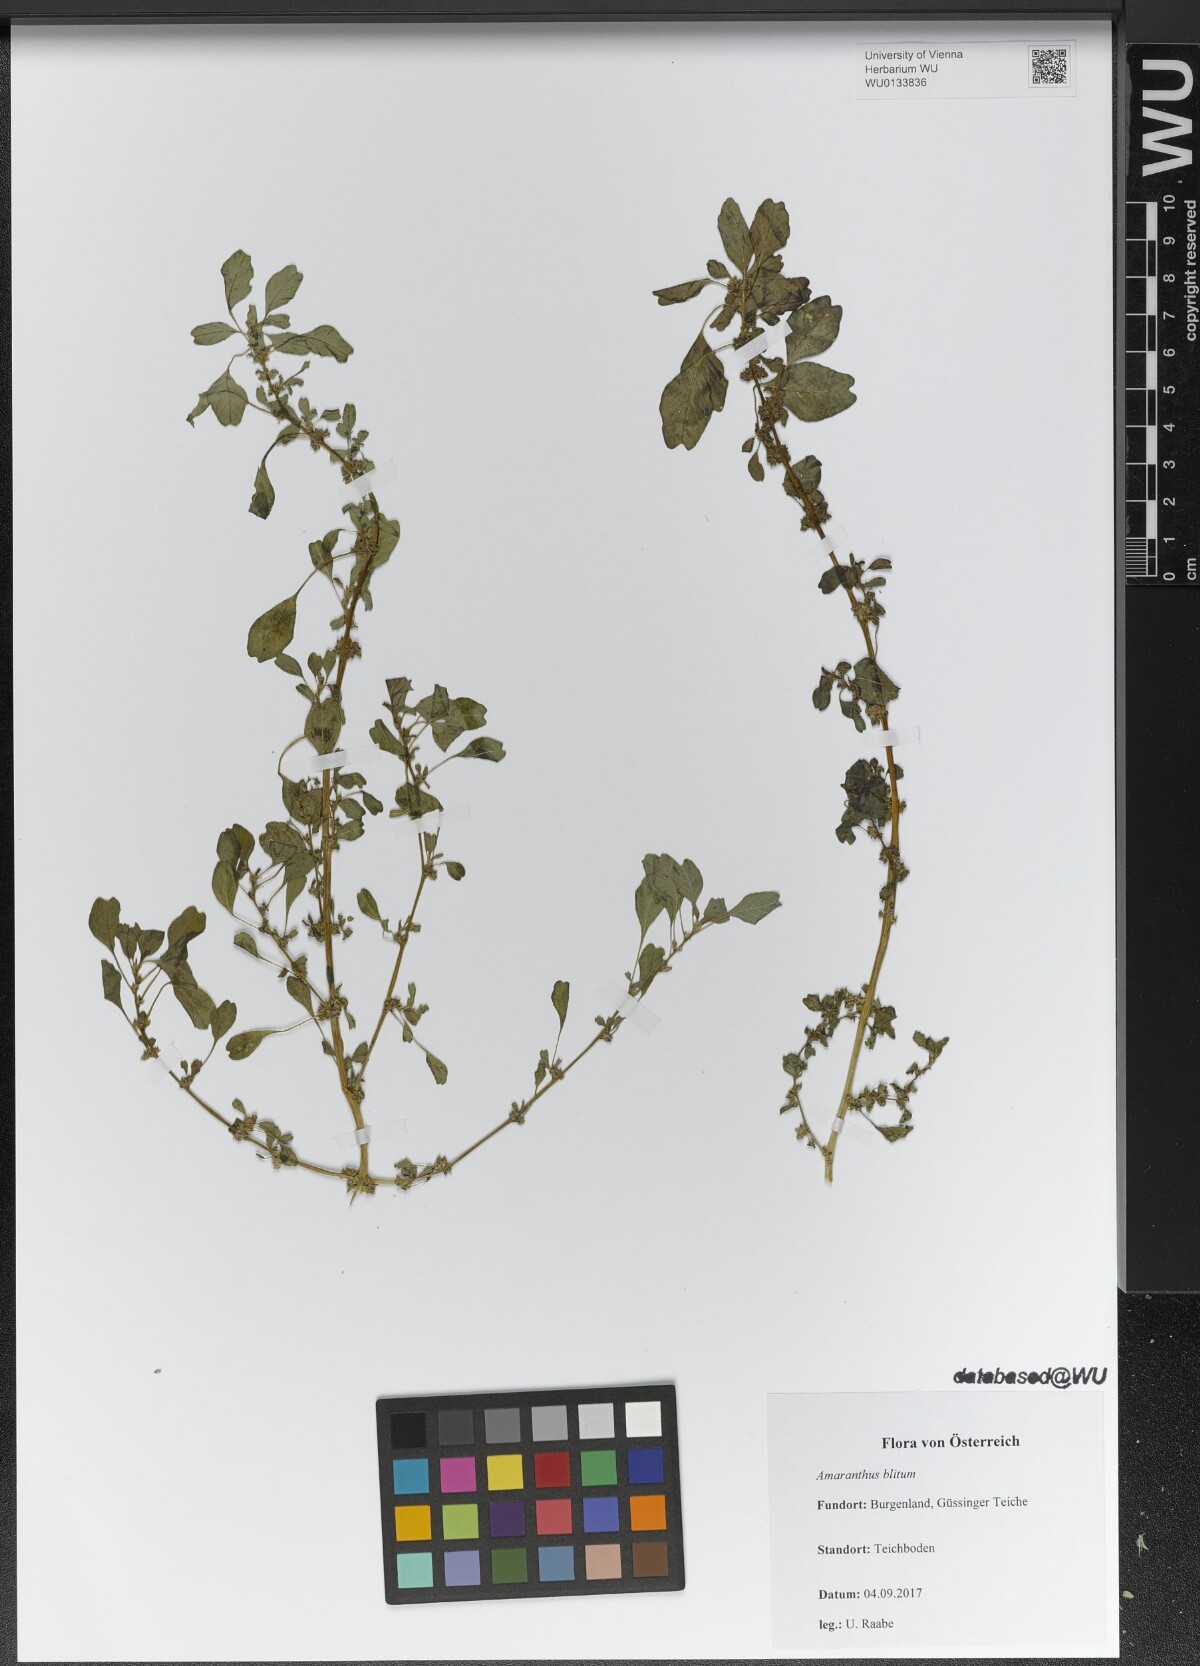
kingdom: Plantae
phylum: Tracheophyta
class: Magnoliopsida
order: Caryophyllales
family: Amaranthaceae
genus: Amaranthus
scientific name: Amaranthus blitum
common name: Purple amaranth
